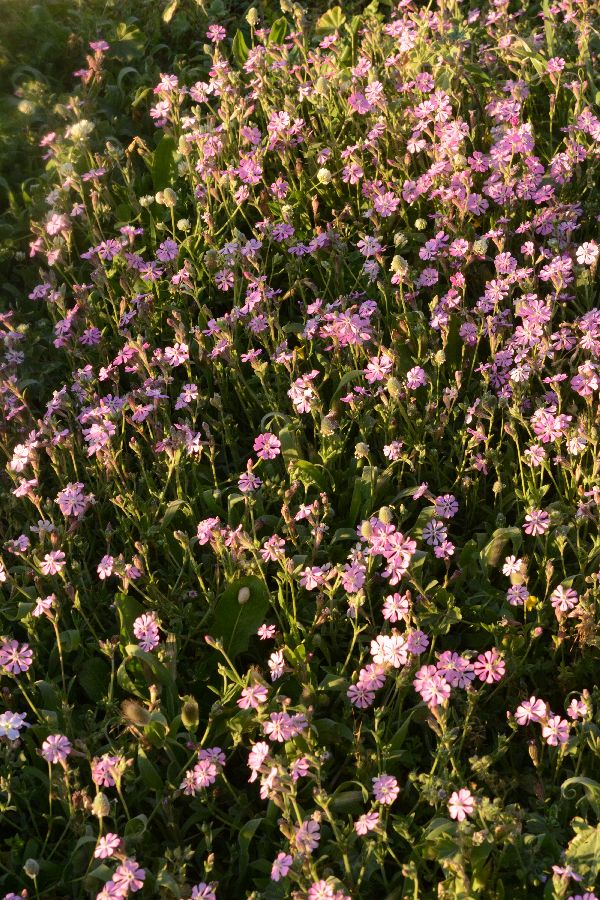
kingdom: Plantae
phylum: Tracheophyta
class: Magnoliopsida
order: Caryophyllales
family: Caryophyllaceae
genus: Silene
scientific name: Silene colorata
